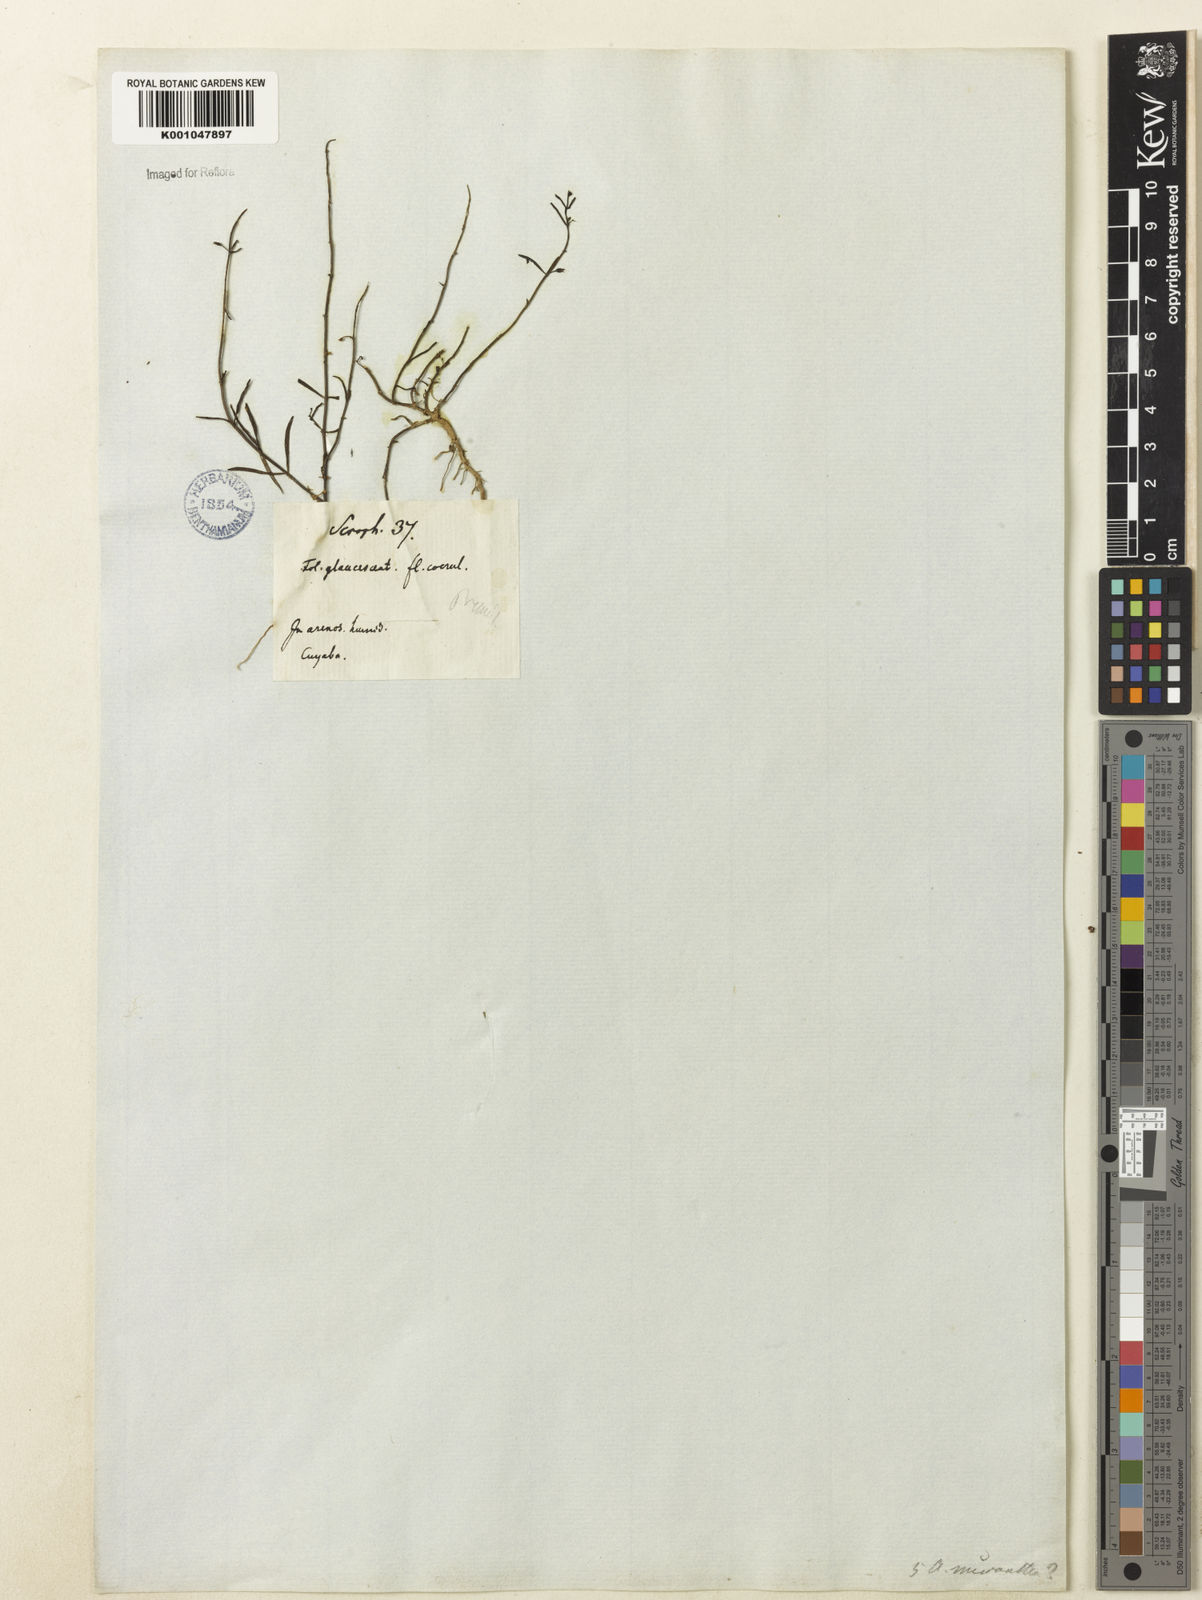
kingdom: Plantae
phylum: Tracheophyta
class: Magnoliopsida
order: Lamiales
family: Plantaginaceae
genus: Angelonia
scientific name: Angelonia micrantha
